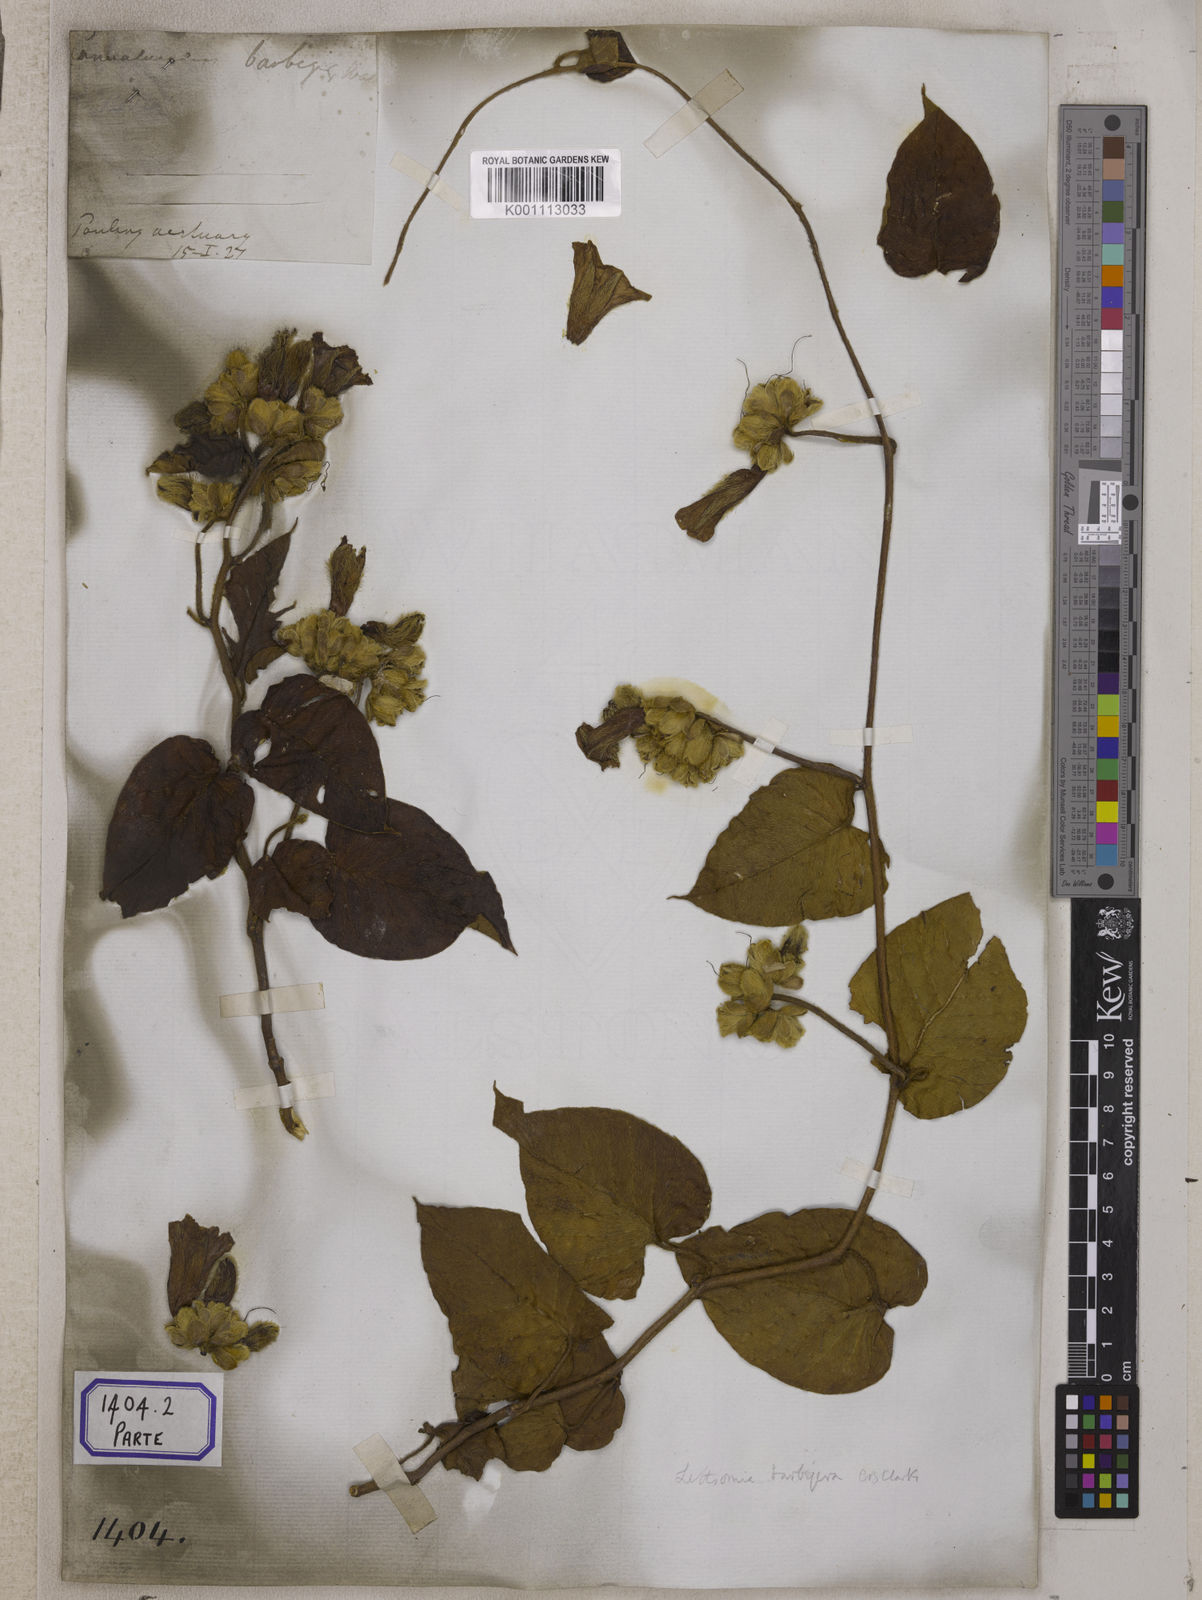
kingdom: Plantae
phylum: Tracheophyta
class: Magnoliopsida
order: Solanales
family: Convolvulaceae
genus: Argyreia
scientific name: Argyreia barbigera
